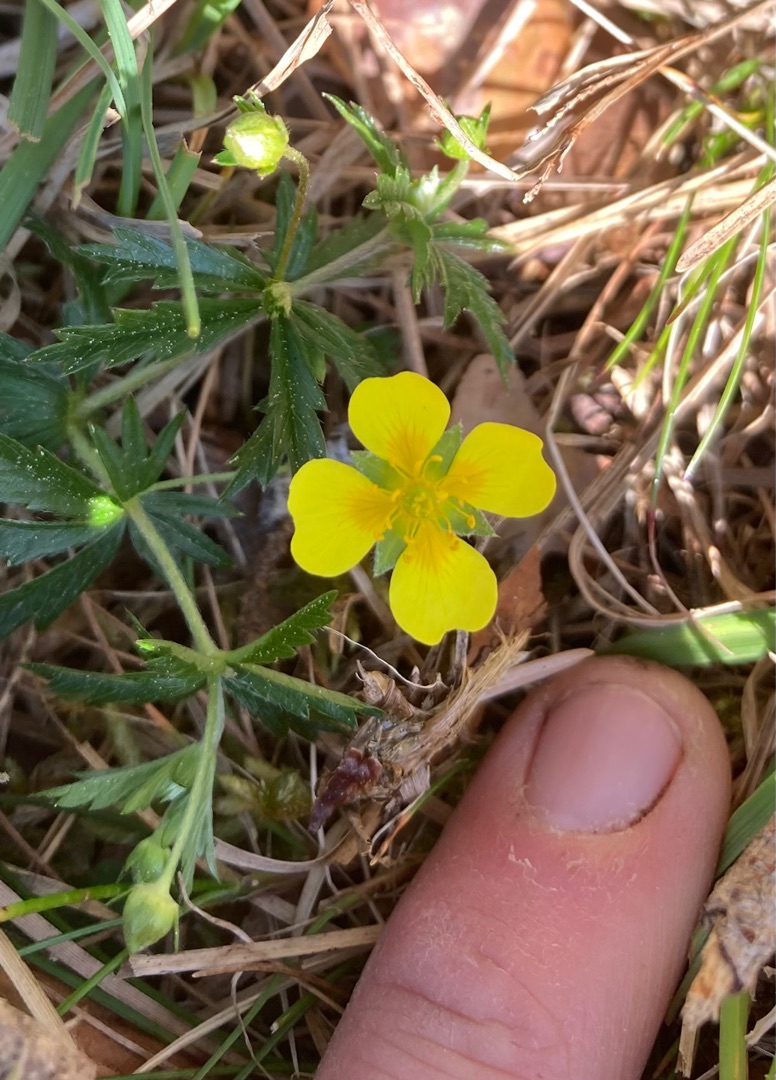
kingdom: Plantae
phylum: Tracheophyta
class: Magnoliopsida
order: Rosales
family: Rosaceae
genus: Potentilla
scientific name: Potentilla erecta
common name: Tormentil
